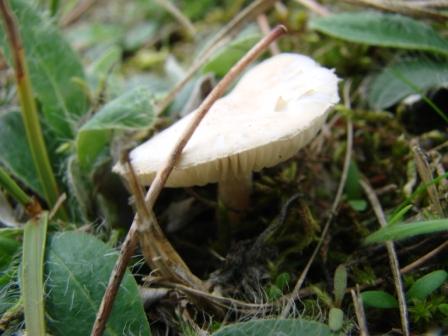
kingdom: Fungi
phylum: Basidiomycota
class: Agaricomycetes
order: Agaricales
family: Hygrophoraceae
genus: Cuphophyllus
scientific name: Cuphophyllus virgineus
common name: snehvid vokshat
